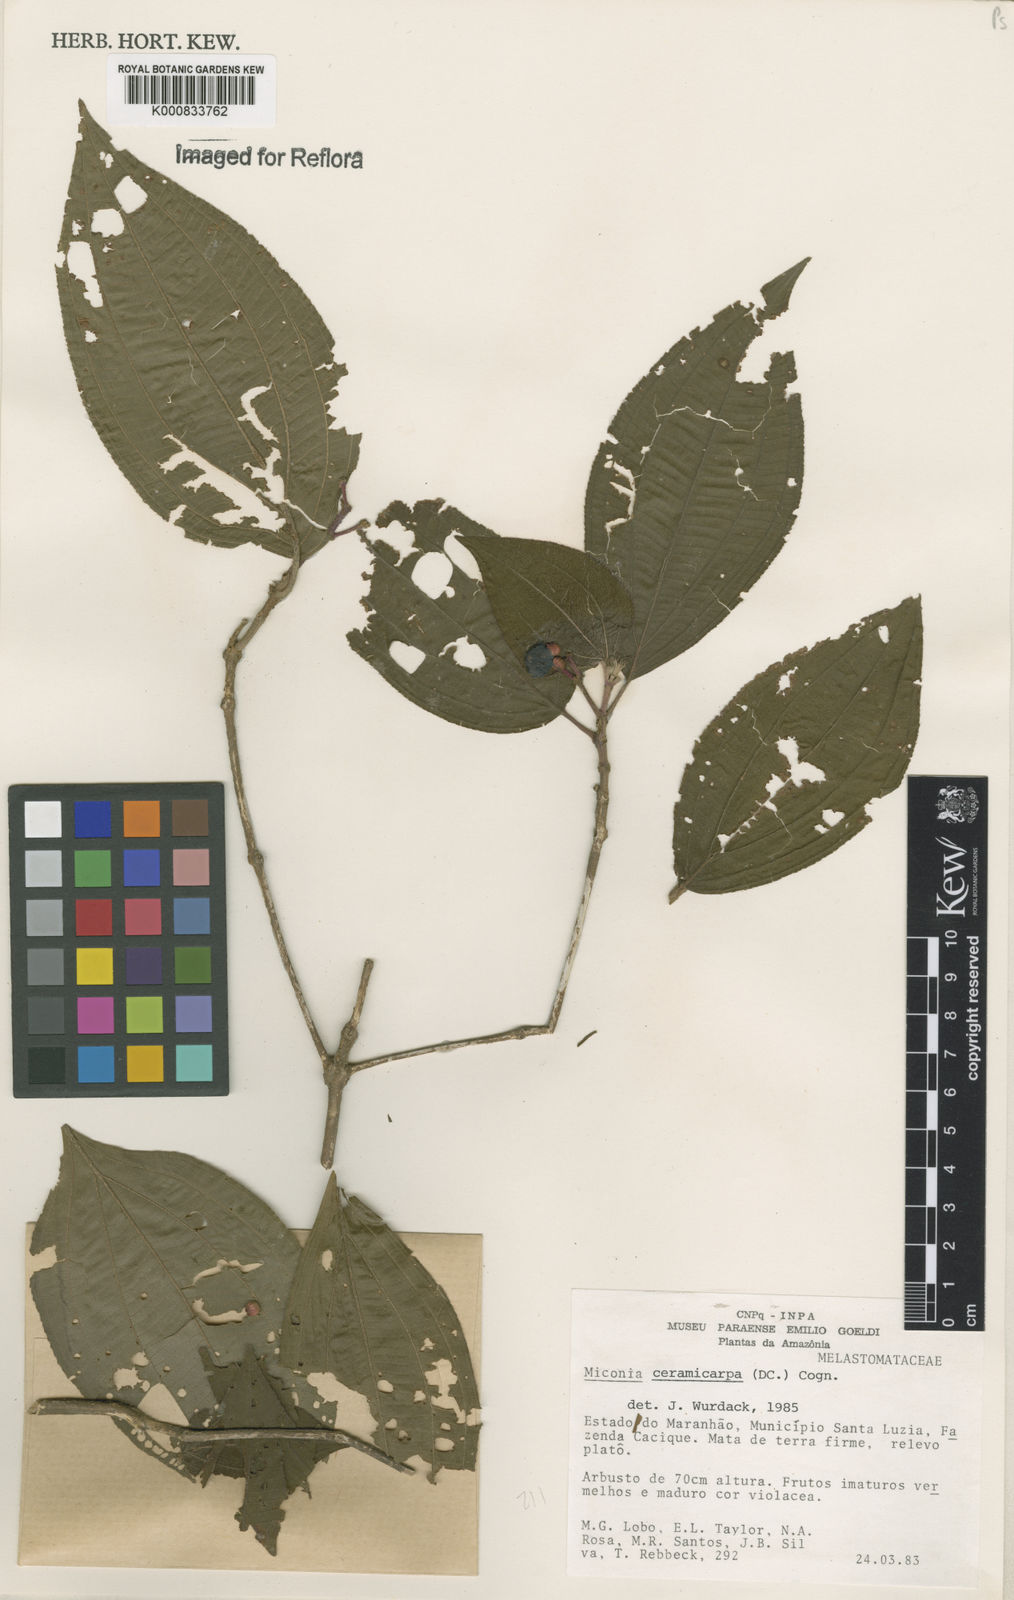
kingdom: Plantae
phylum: Tracheophyta
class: Magnoliopsida
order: Myrtales
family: Melastomataceae
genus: Miconia
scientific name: Miconia ceramicarpa
